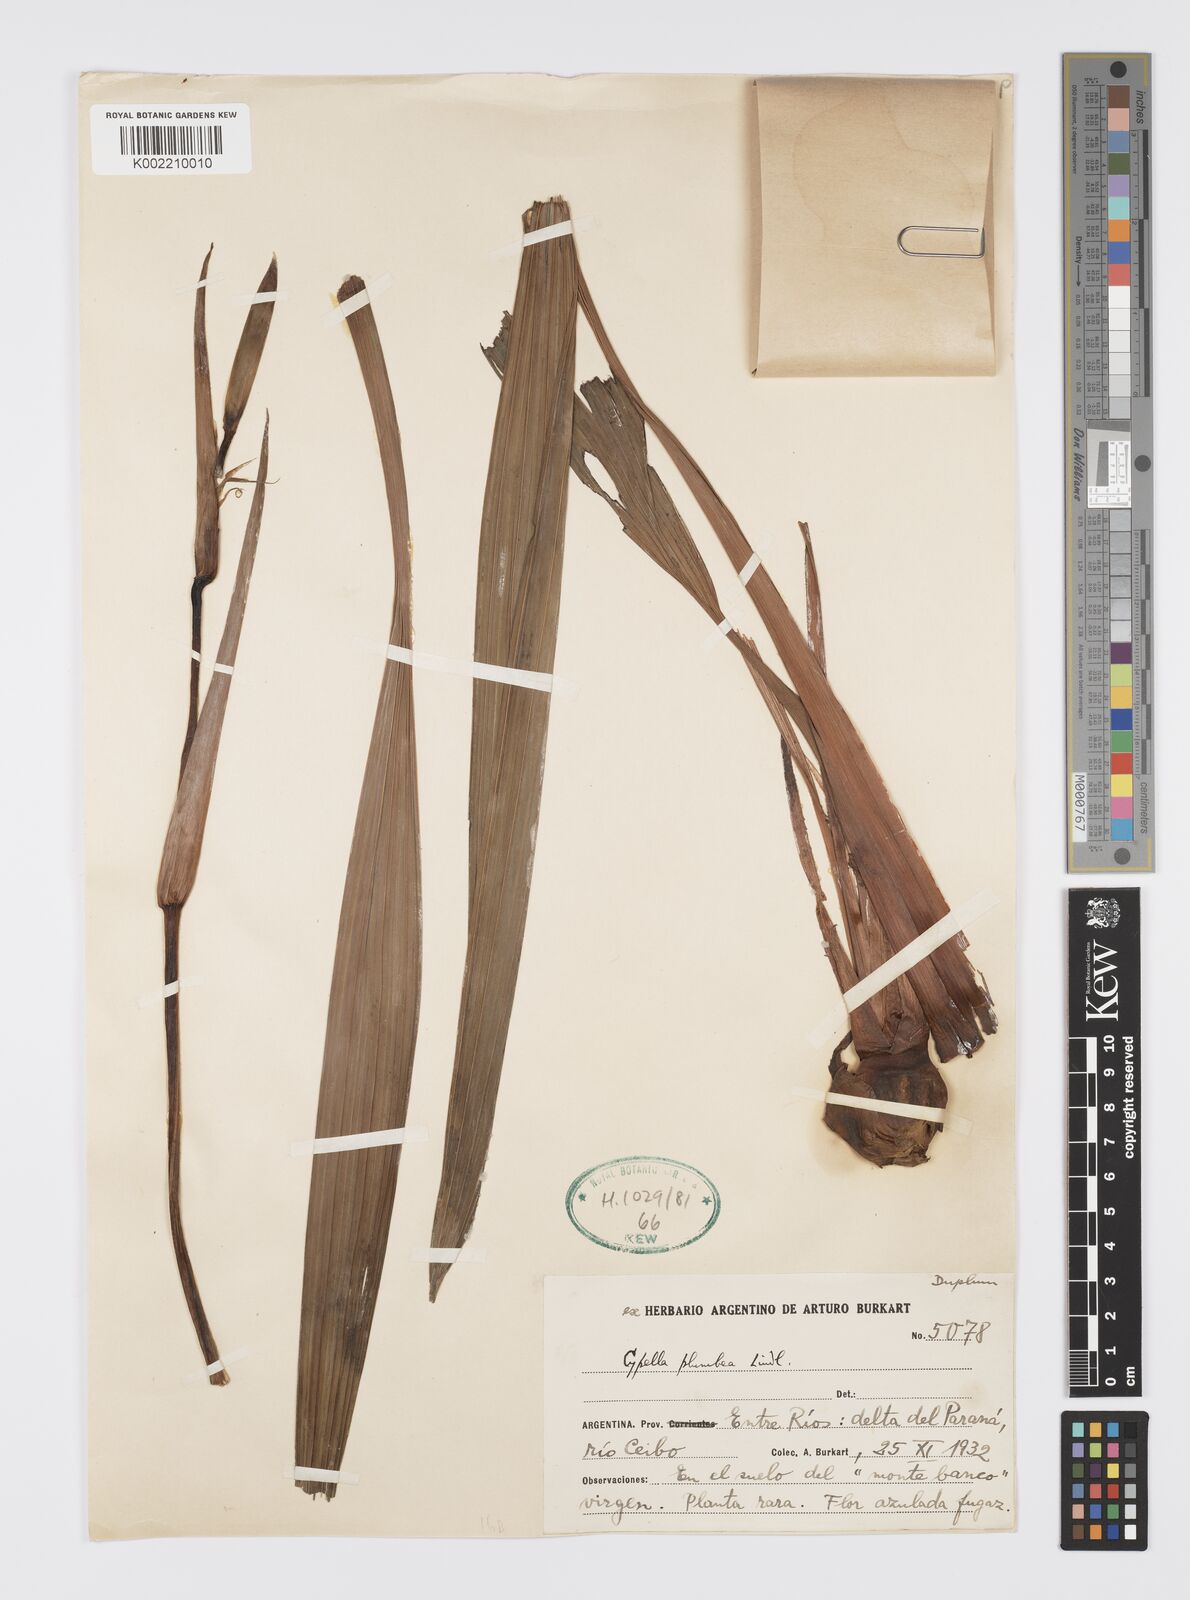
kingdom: Plantae
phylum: Tracheophyta
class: Liliopsida
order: Asparagales
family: Iridaceae
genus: Phalocallis
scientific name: Phalocallis coelestis
